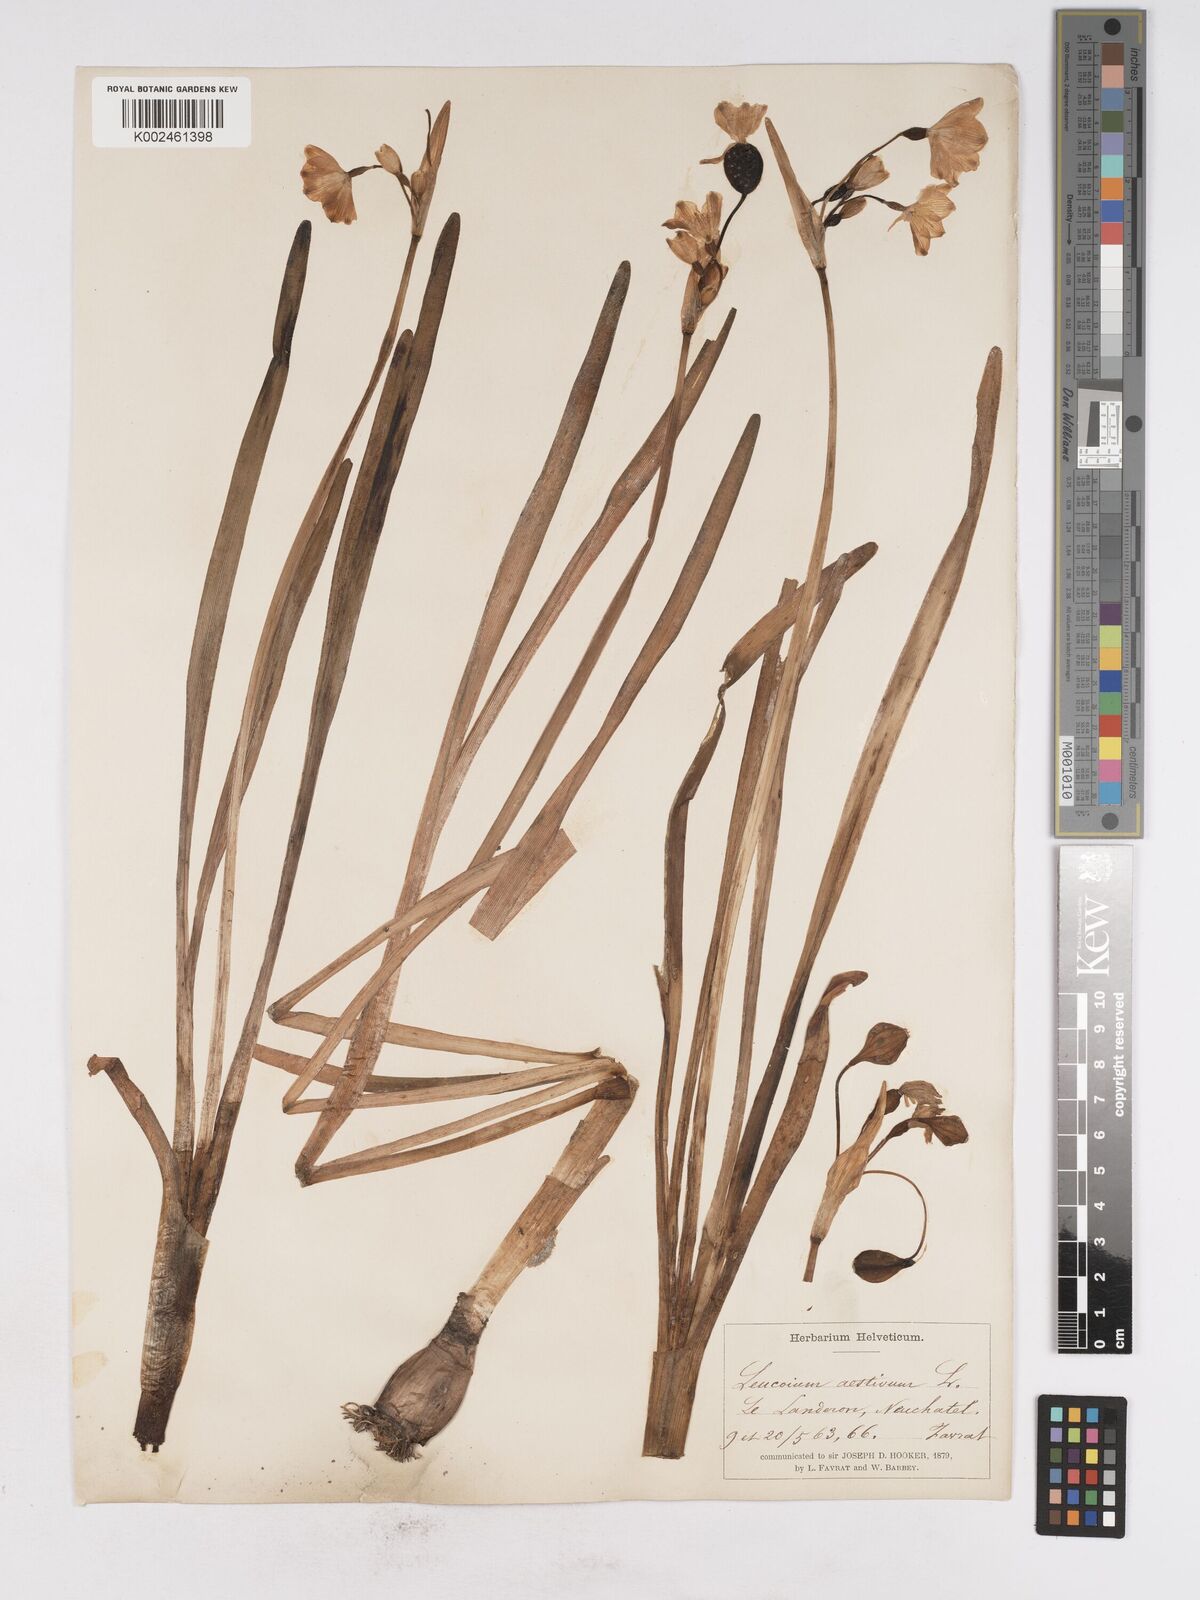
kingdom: Plantae
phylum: Tracheophyta
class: Liliopsida
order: Asparagales
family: Amaryllidaceae
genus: Leucojum
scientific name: Leucojum aestivum
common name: Summer snowflake
